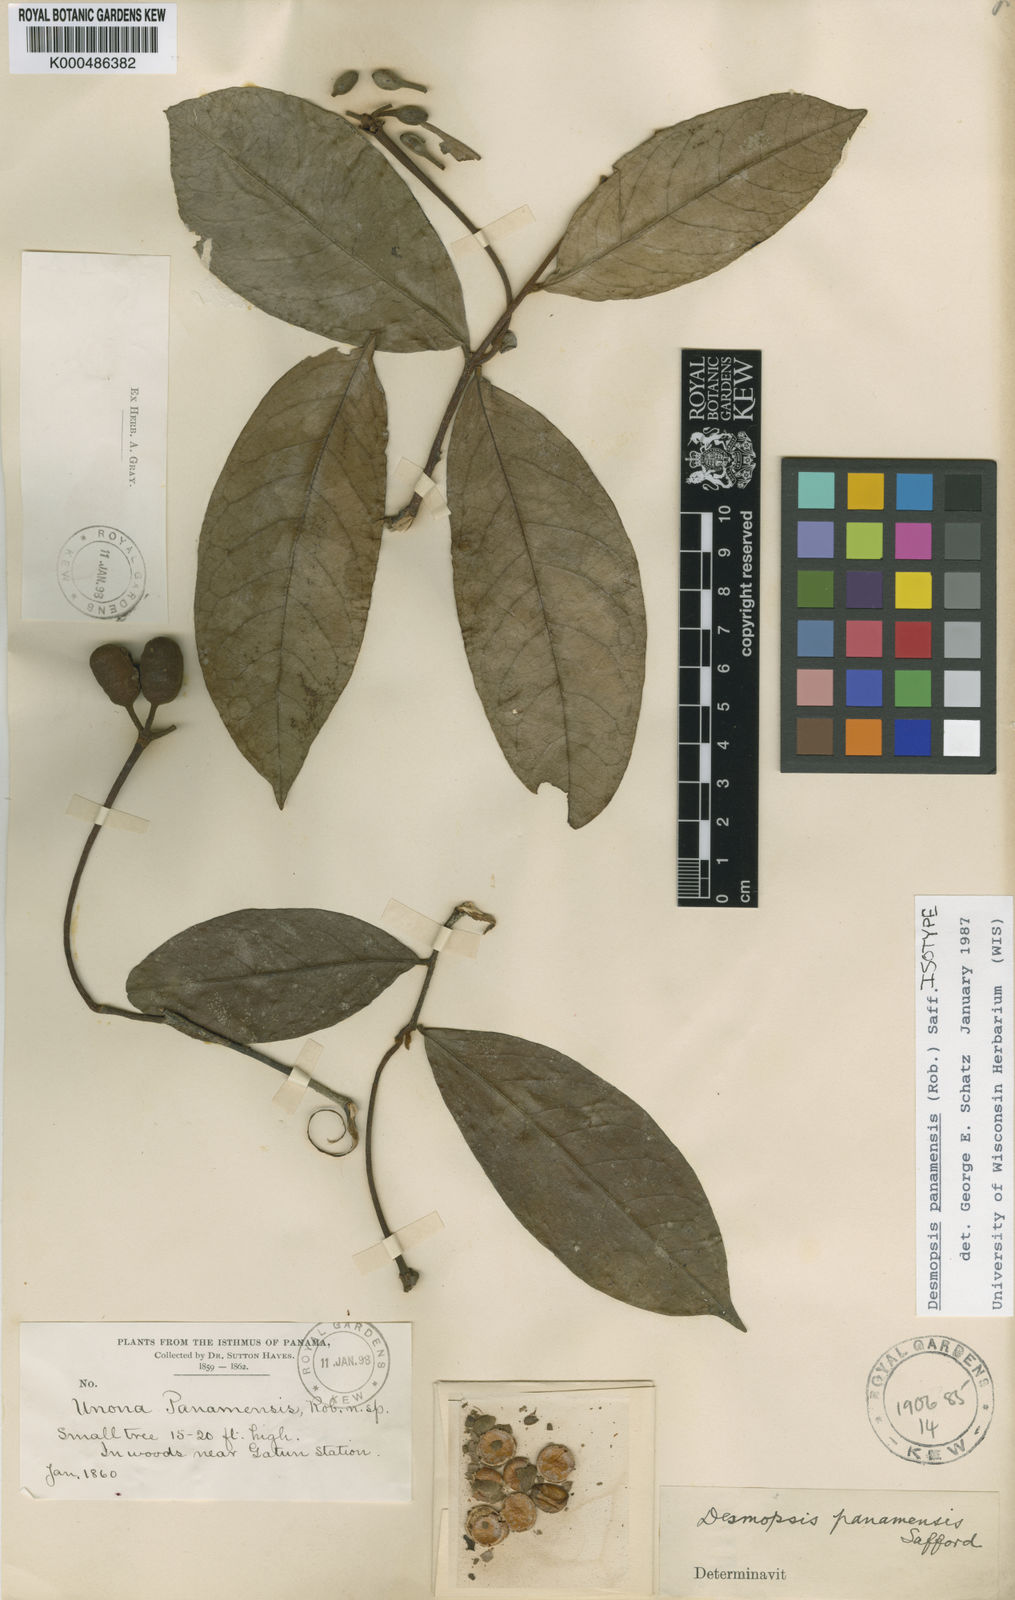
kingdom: Plantae
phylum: Tracheophyta
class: Magnoliopsida
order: Magnoliales
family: Annonaceae
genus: Desmopsis
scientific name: Desmopsis panamensis
